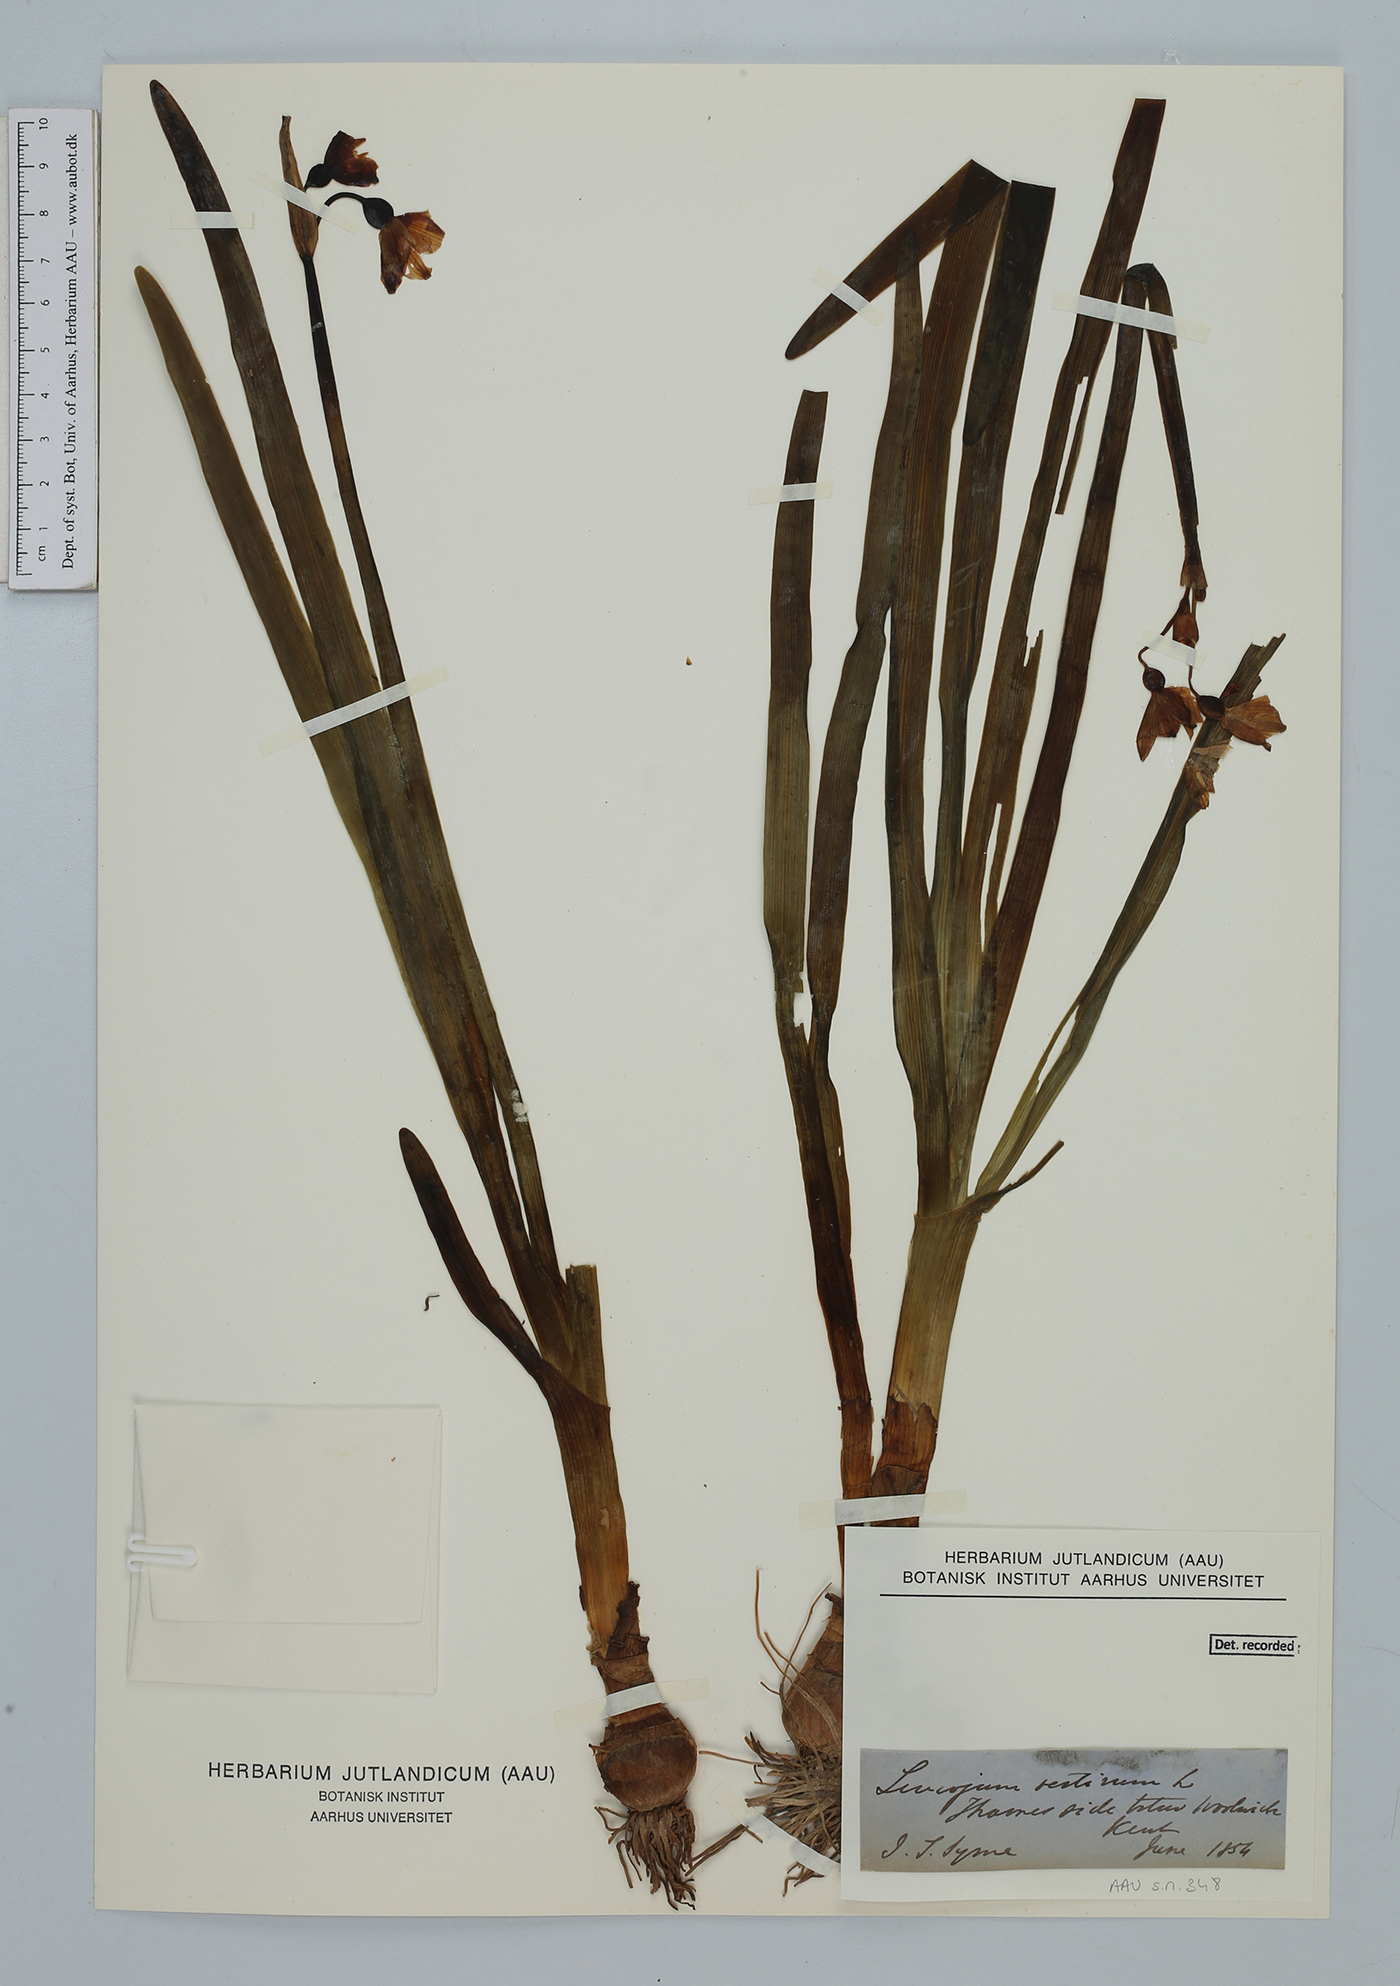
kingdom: Plantae
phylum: Tracheophyta
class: Liliopsida
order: Asparagales
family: Amaryllidaceae
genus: Leucojum
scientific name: Leucojum aestivum
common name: Summer snowflake
